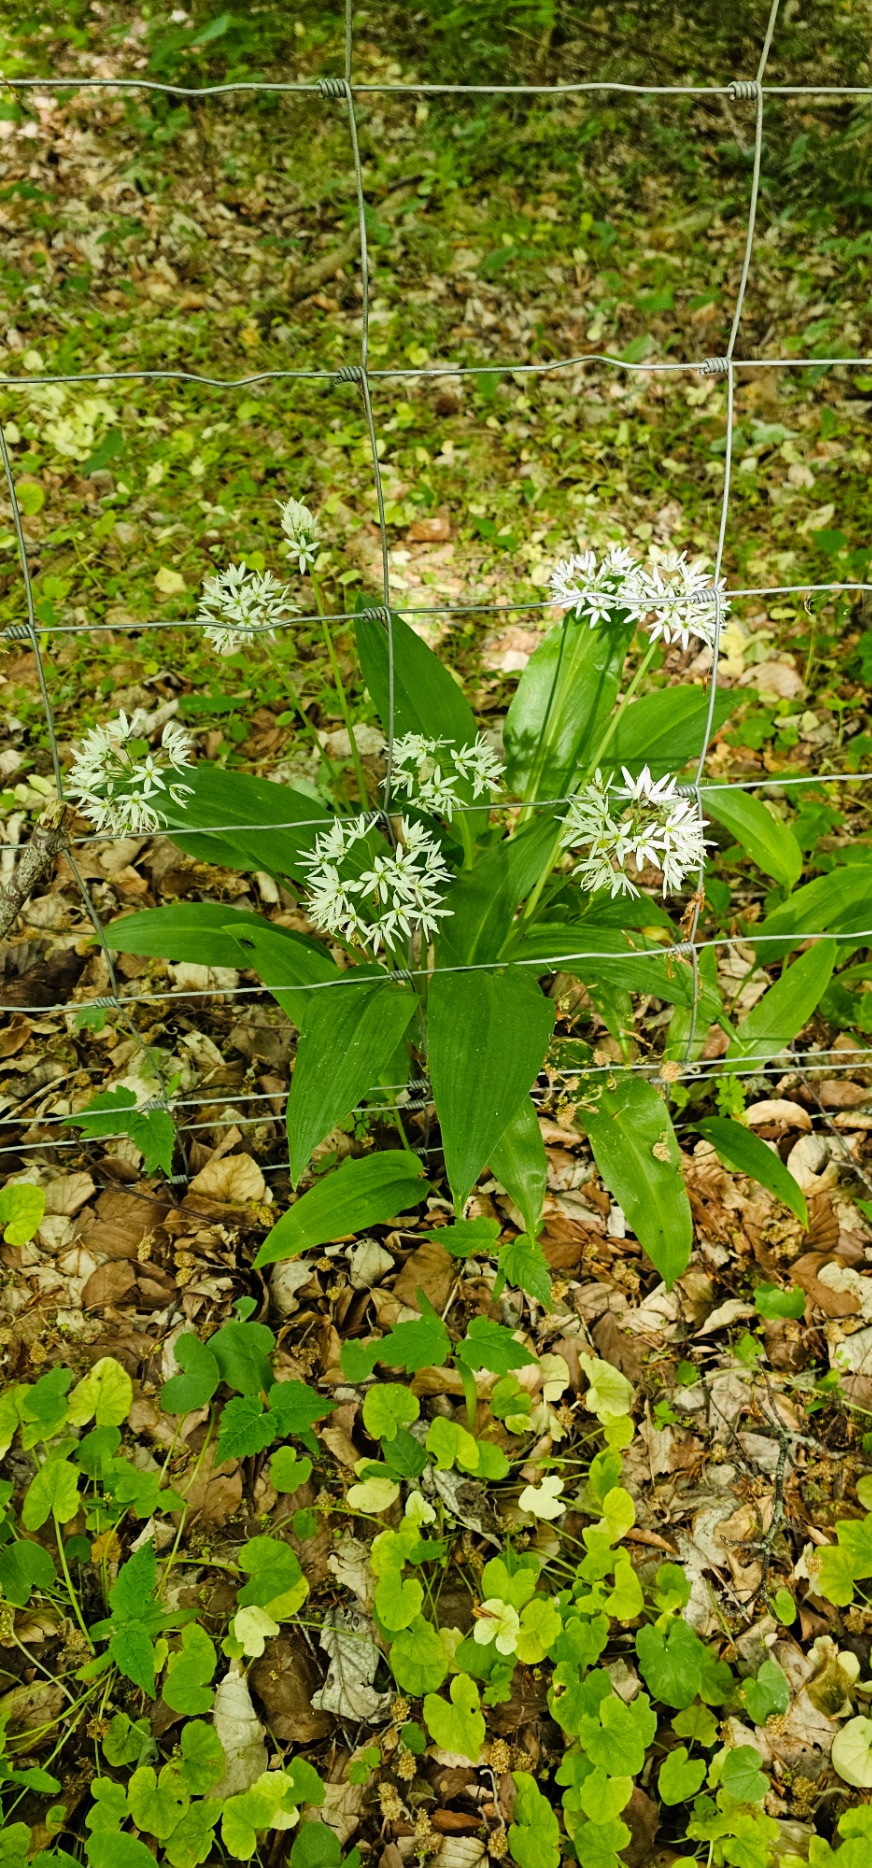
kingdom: Plantae
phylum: Tracheophyta
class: Liliopsida
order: Asparagales
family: Amaryllidaceae
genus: Allium
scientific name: Allium ursinum
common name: Rams-løg
